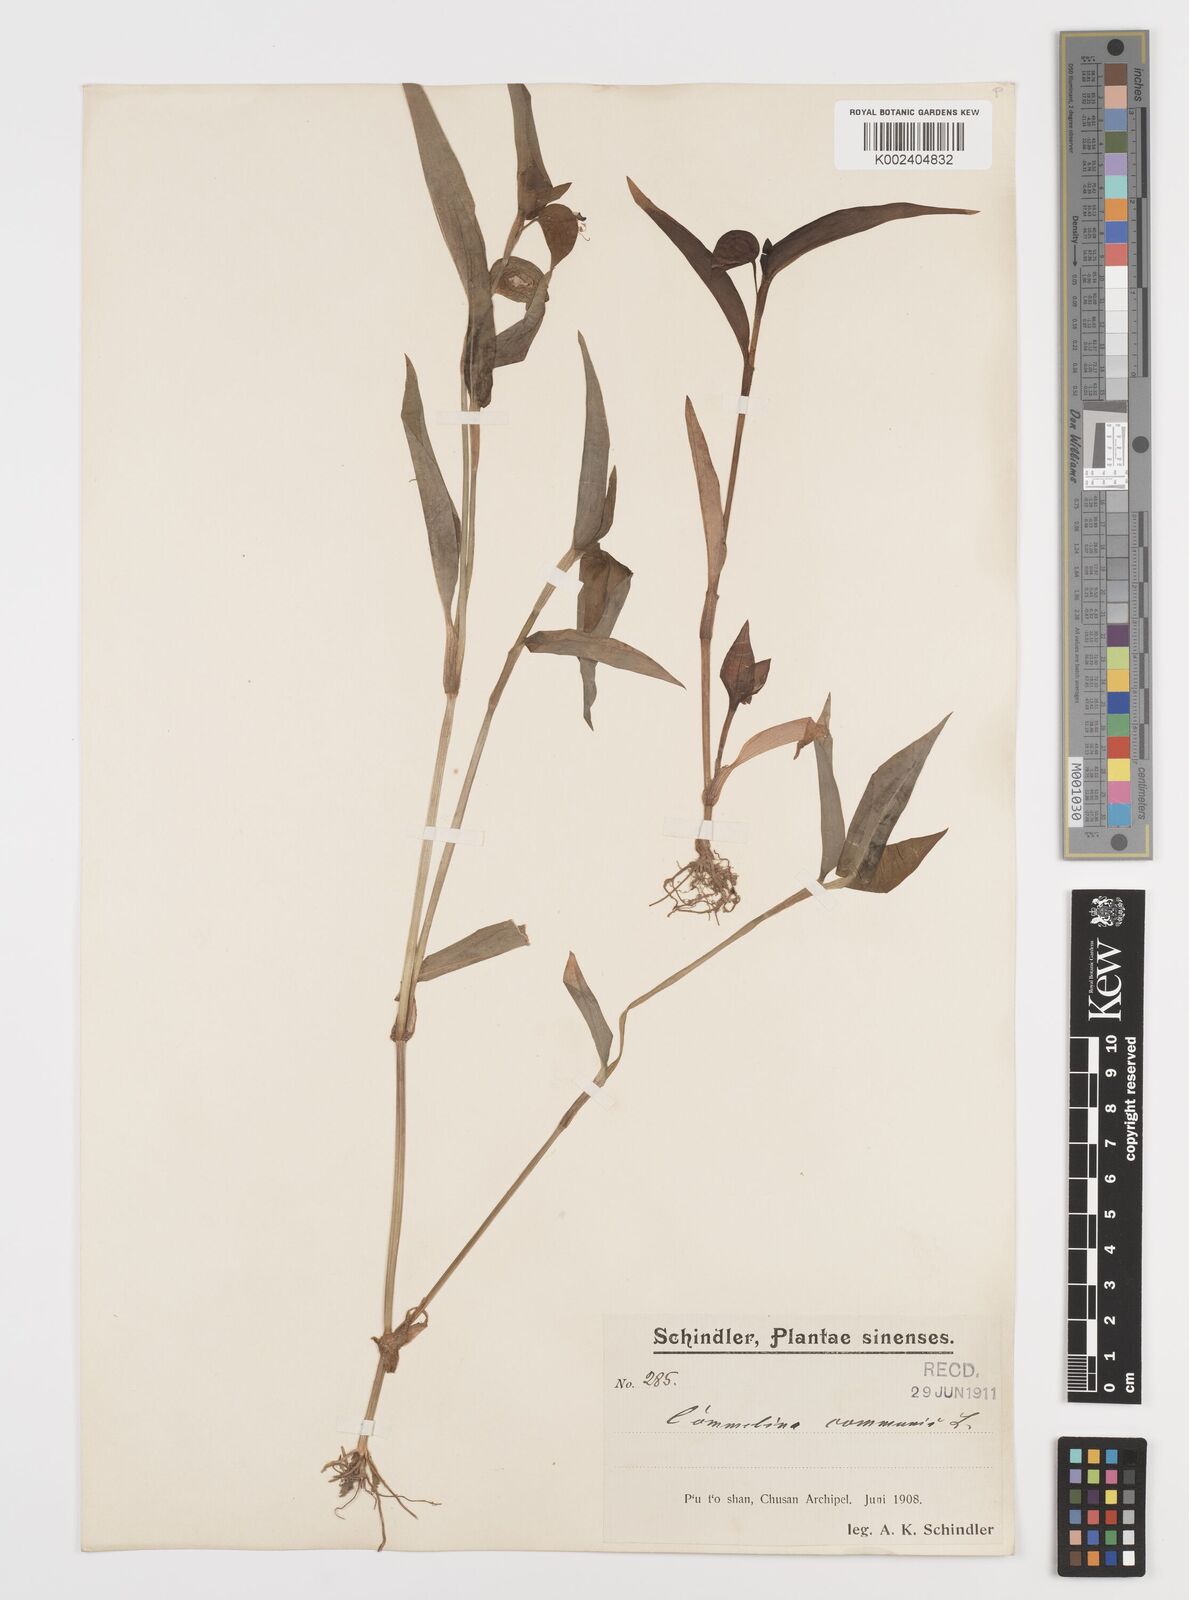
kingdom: Plantae
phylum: Tracheophyta
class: Liliopsida
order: Commelinales
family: Commelinaceae
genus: Commelina
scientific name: Commelina communis
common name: Asiatic dayflower
